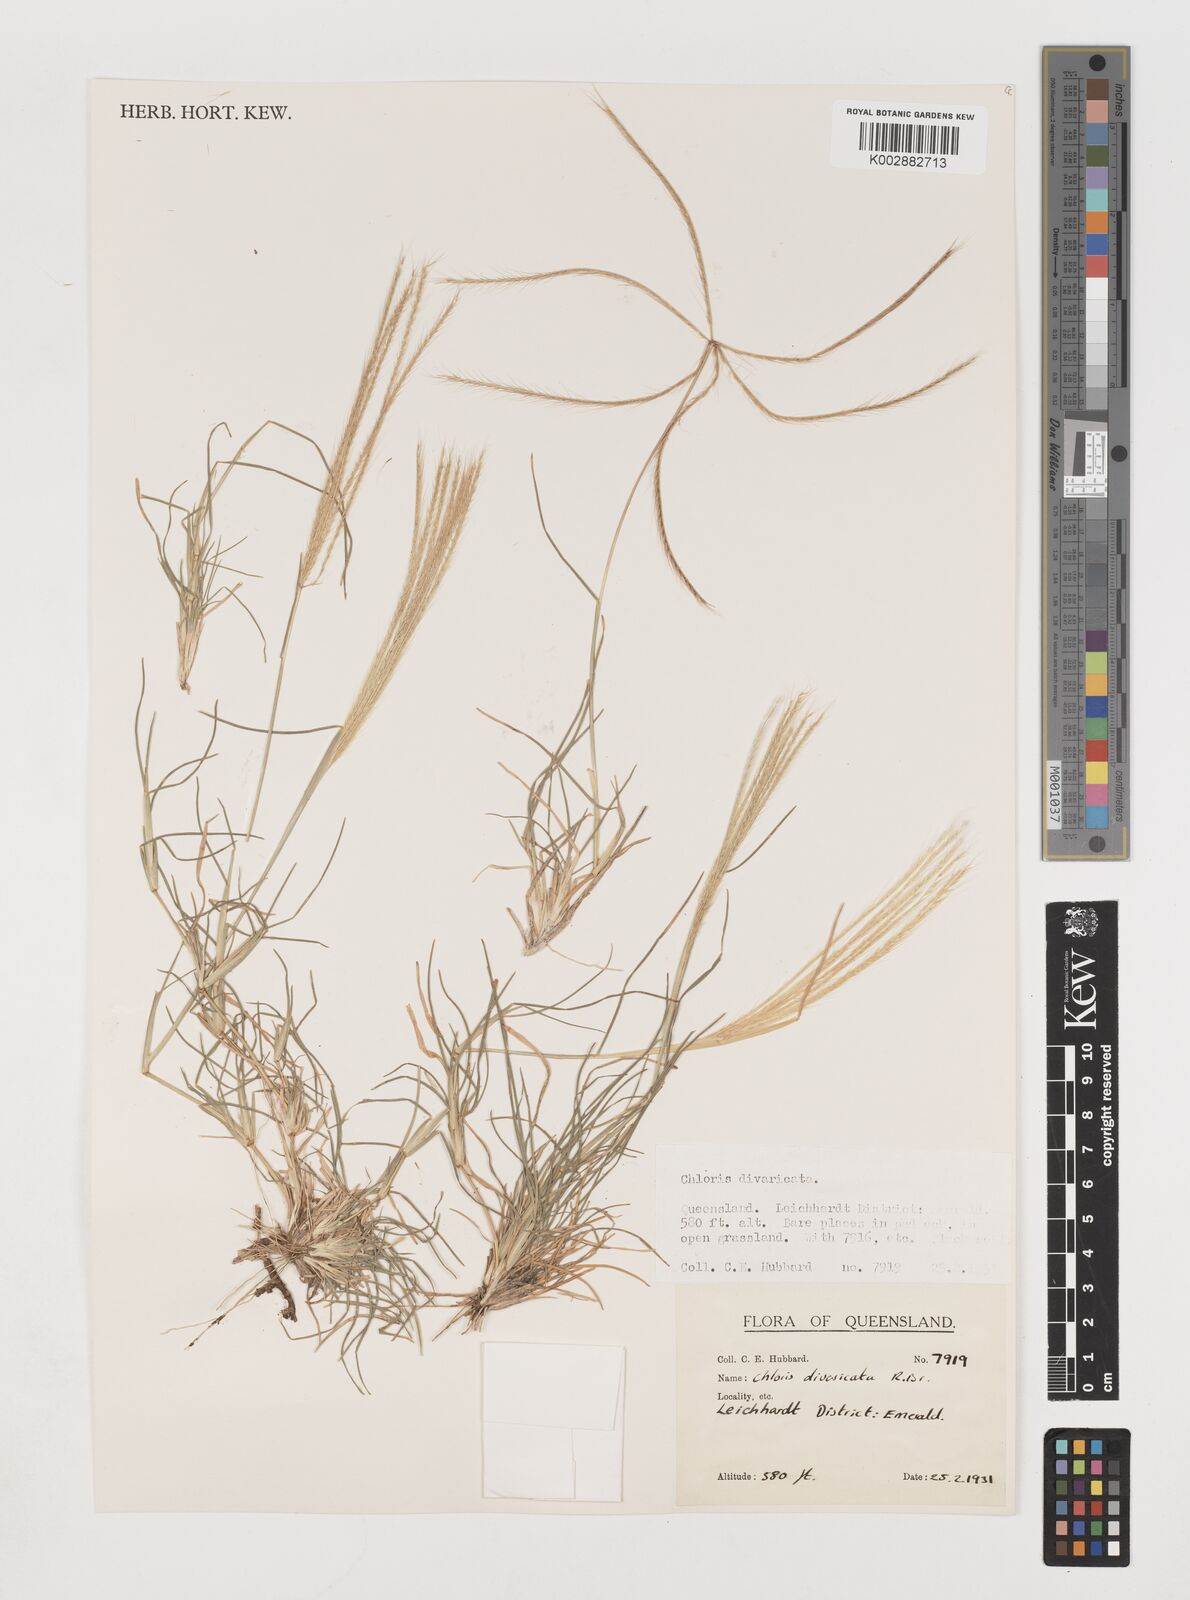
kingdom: Plantae
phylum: Tracheophyta
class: Liliopsida
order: Poales
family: Poaceae
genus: Chloris
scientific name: Chloris divaricata
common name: Spreading windmill grass
